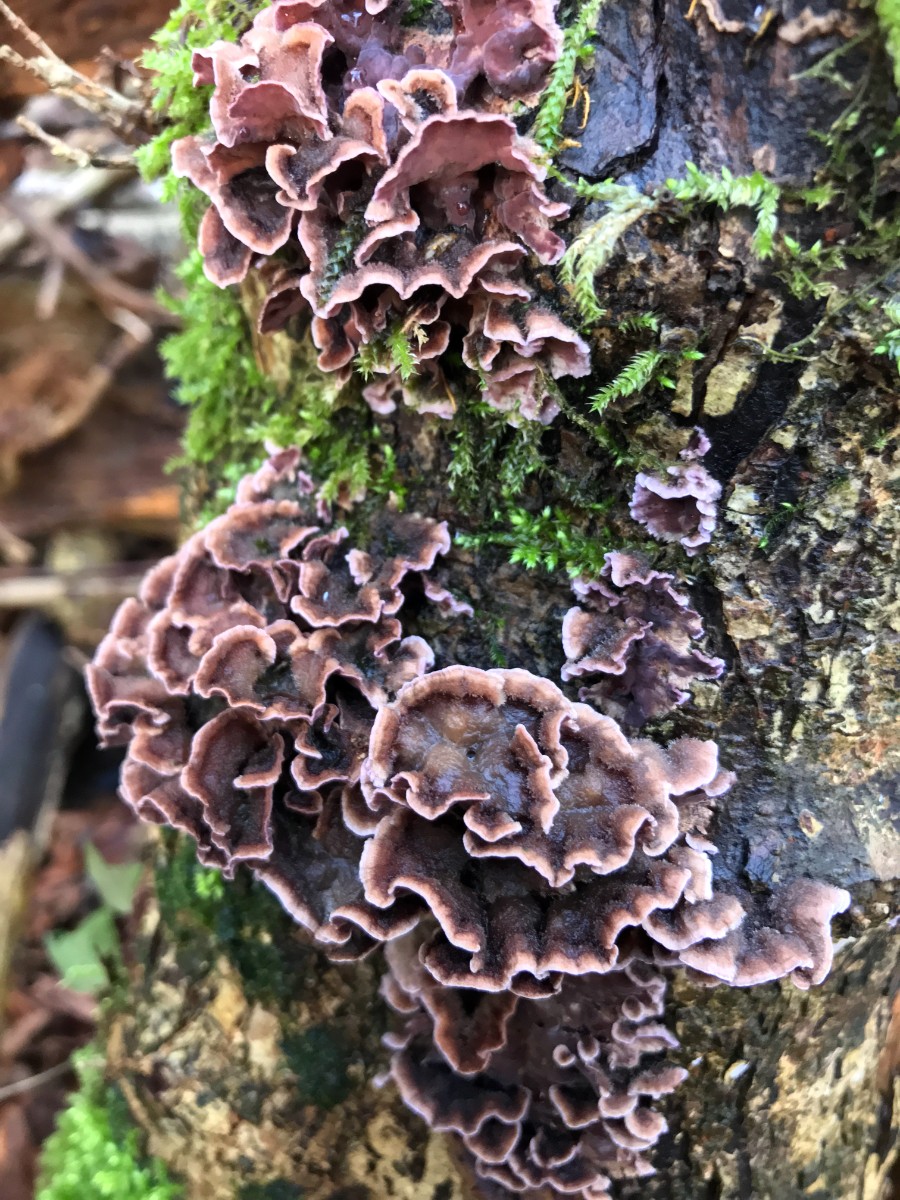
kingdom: Fungi
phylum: Basidiomycota
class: Agaricomycetes
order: Agaricales
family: Cyphellaceae
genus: Chondrostereum
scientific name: Chondrostereum purpureum
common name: purpurlædersvamp
